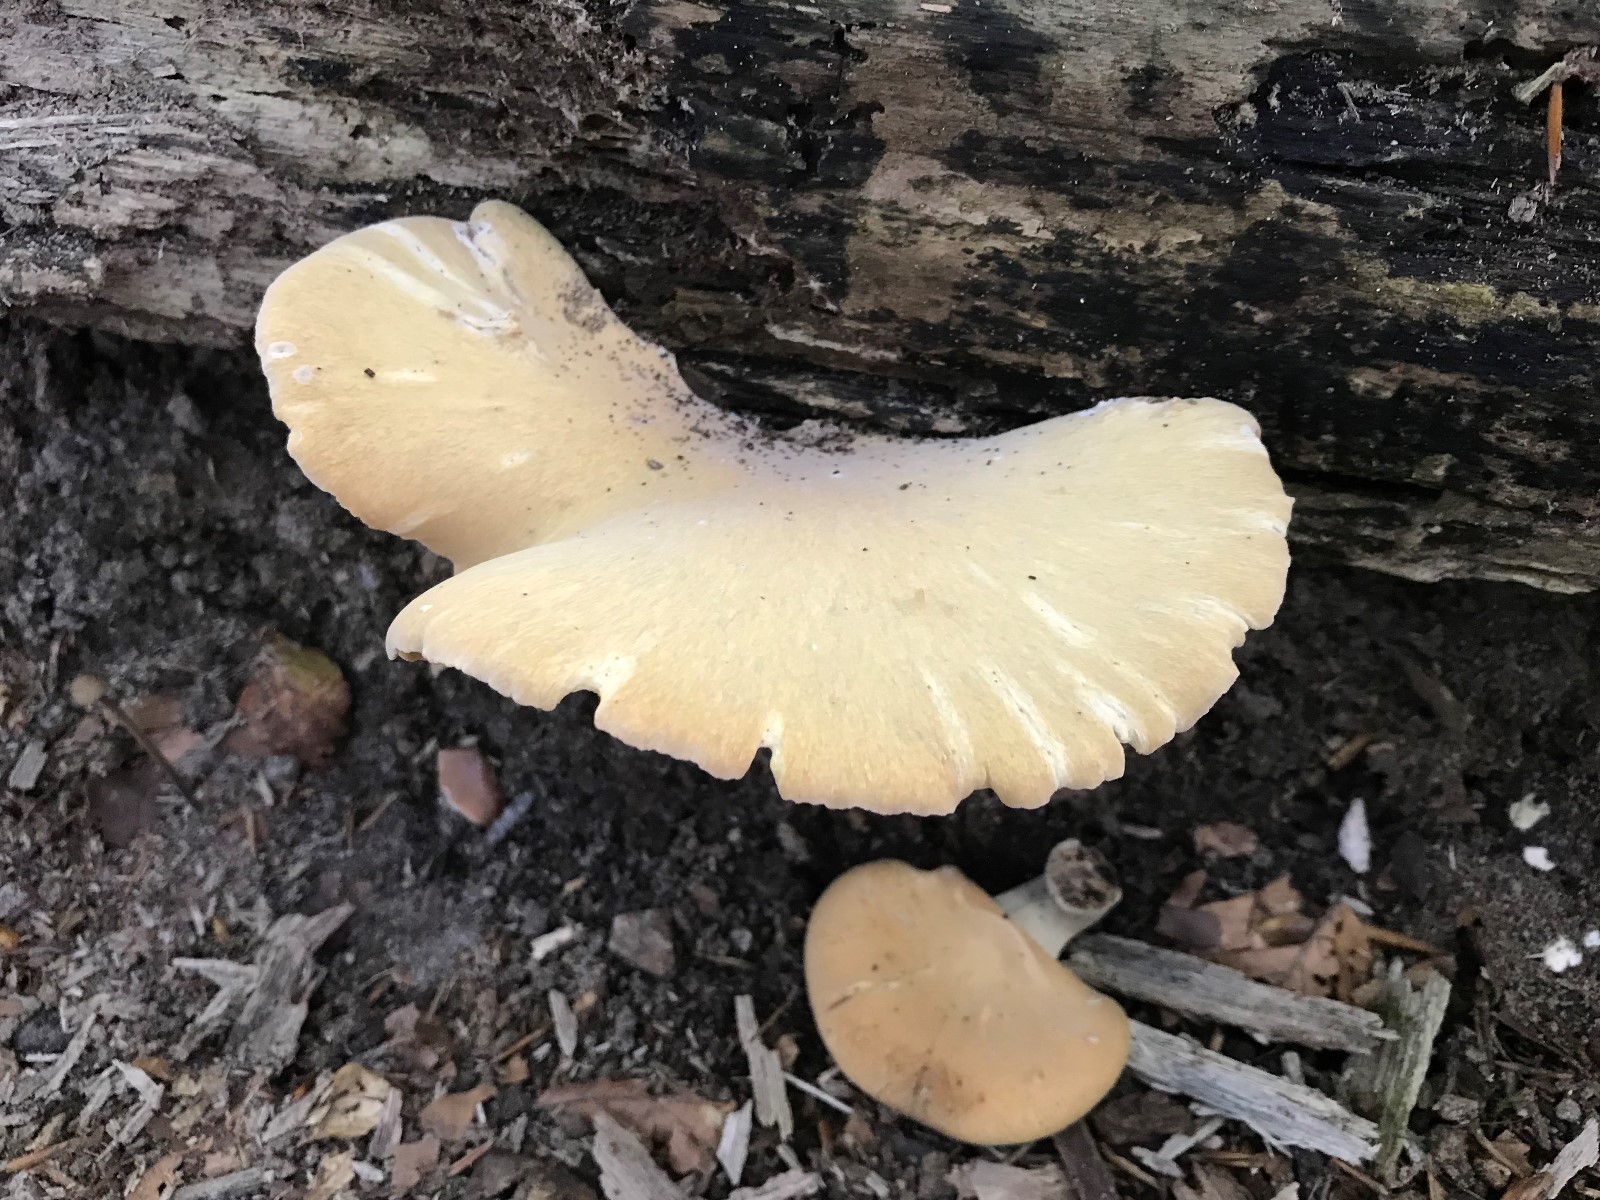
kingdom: Fungi
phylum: Basidiomycota
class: Agaricomycetes
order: Agaricales
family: Strophariaceae
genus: Kuehneromyces
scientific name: Kuehneromyces mutabilis
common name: foranderlig skælhat
